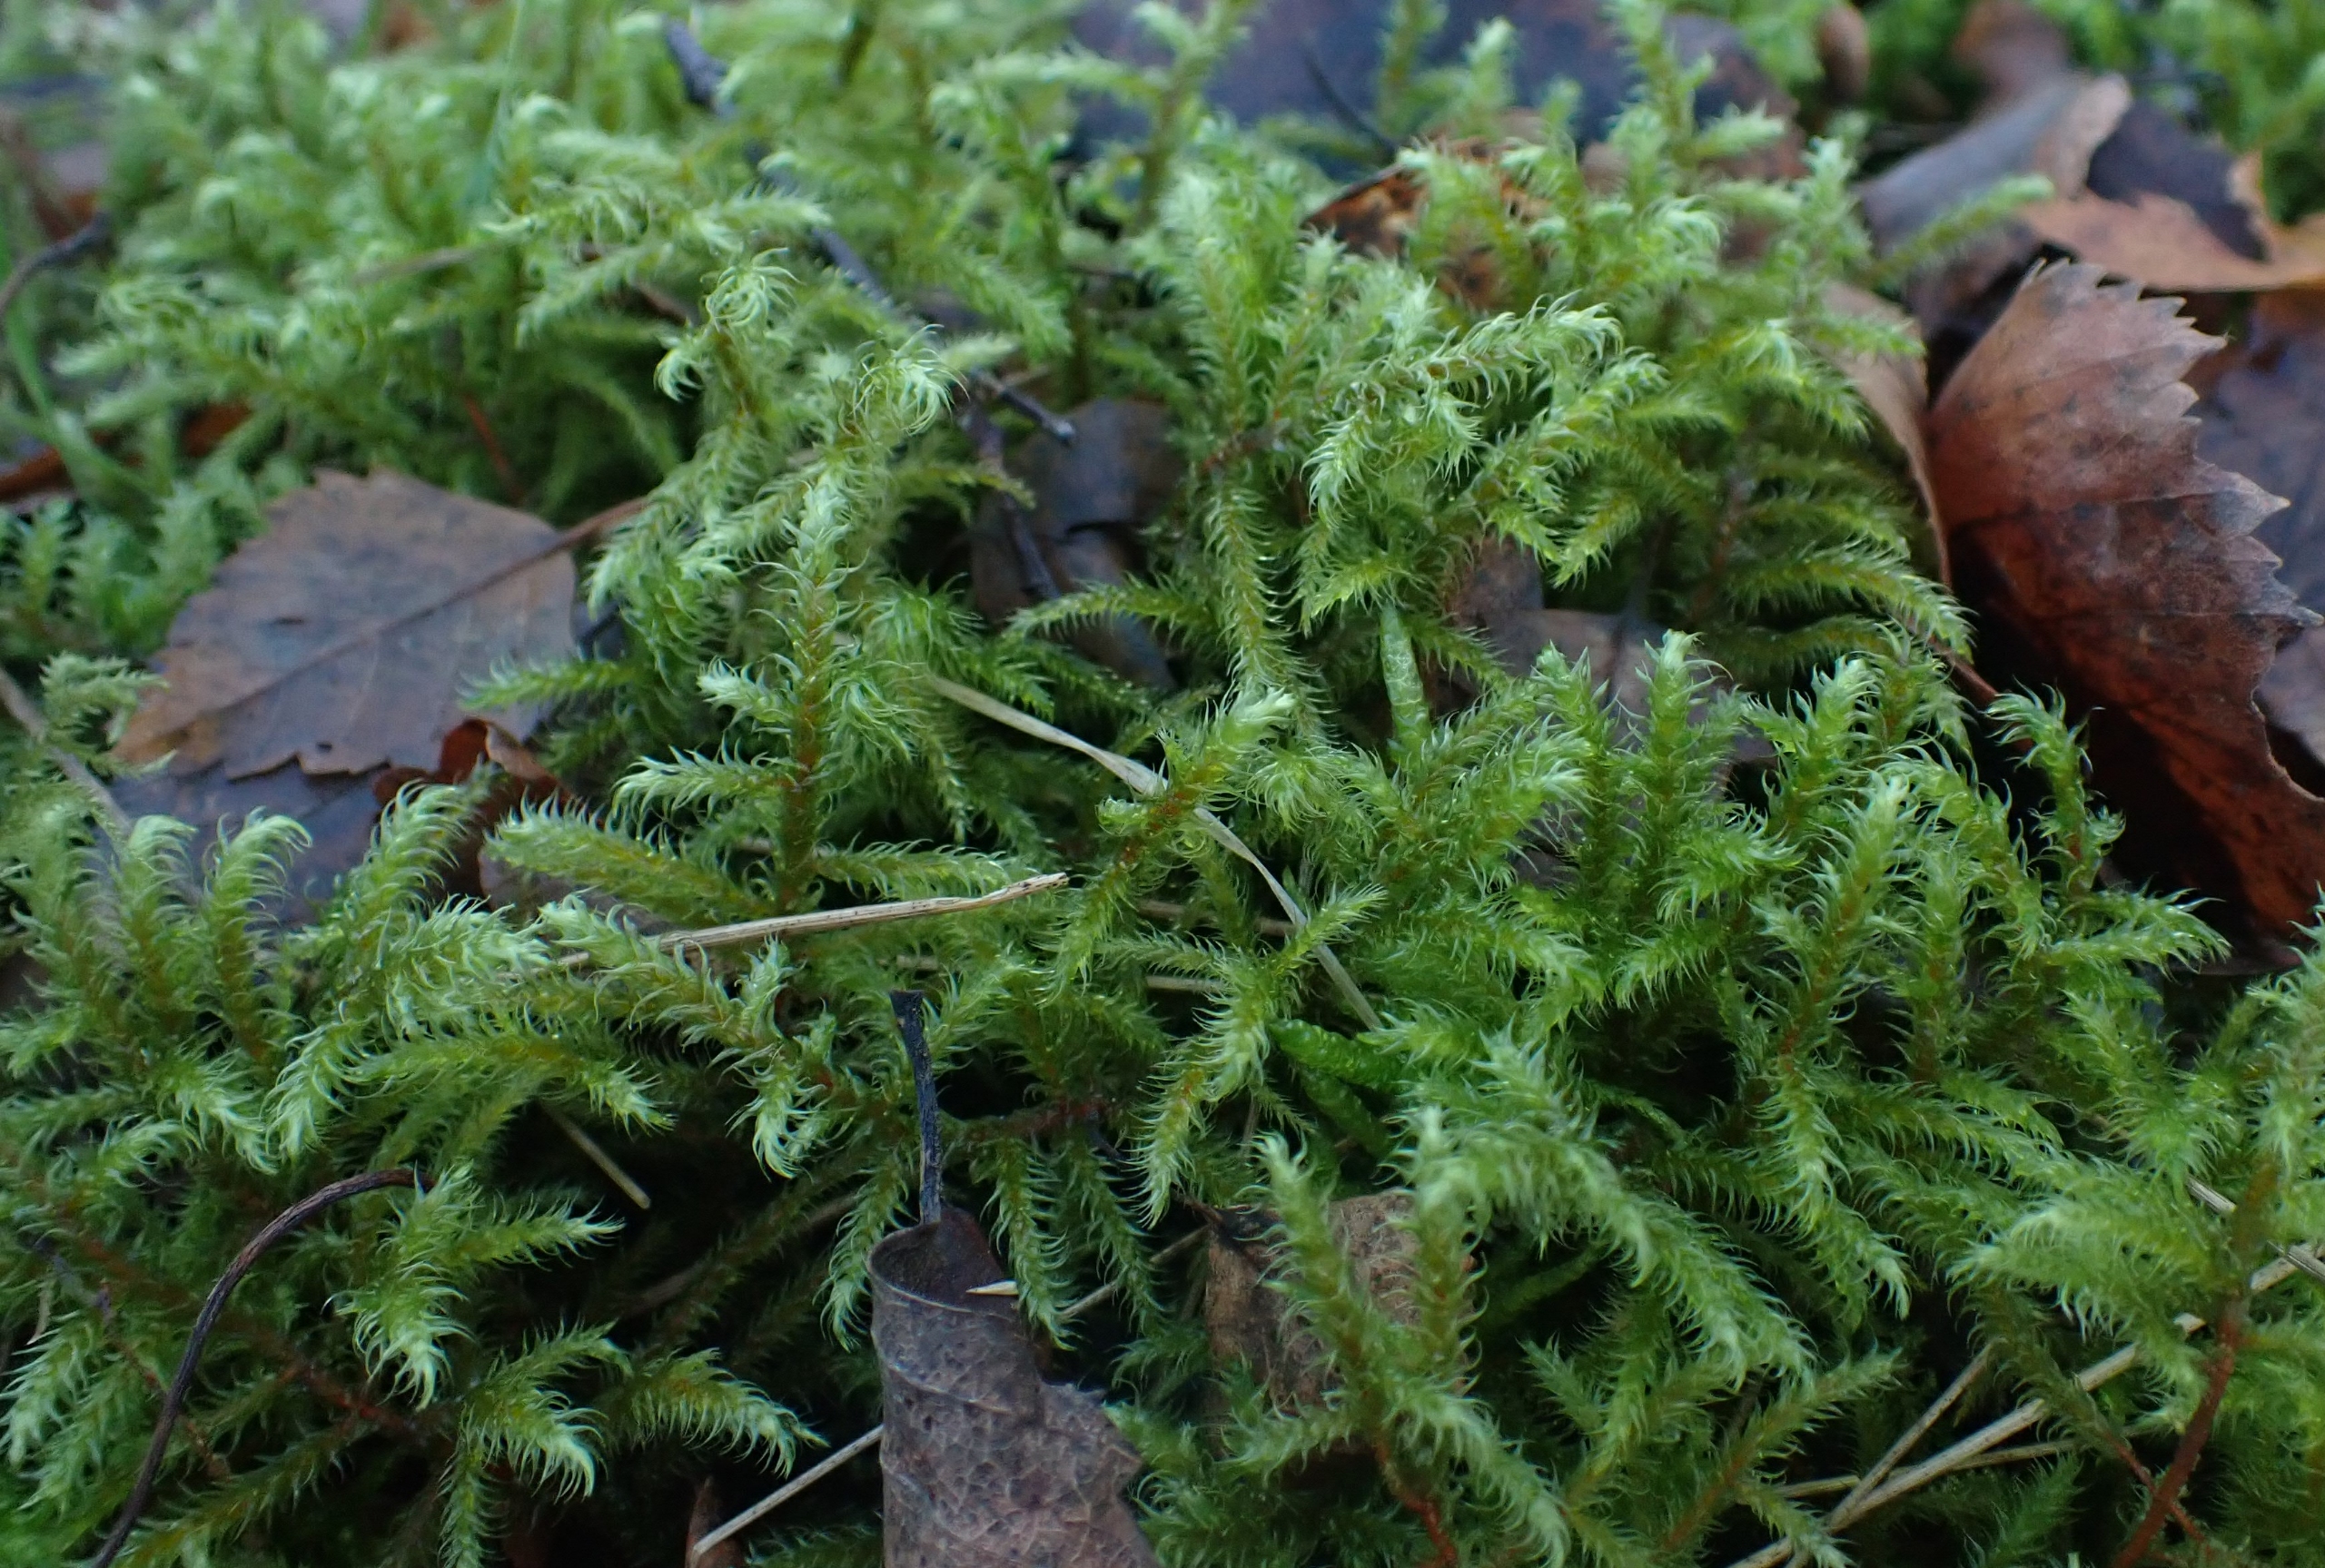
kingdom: Plantae
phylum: Bryophyta
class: Bryopsida
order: Hypnales
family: Hylocomiaceae
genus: Rhytidiadelphus
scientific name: Rhytidiadelphus loreus
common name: Ulvefod-kransemos
